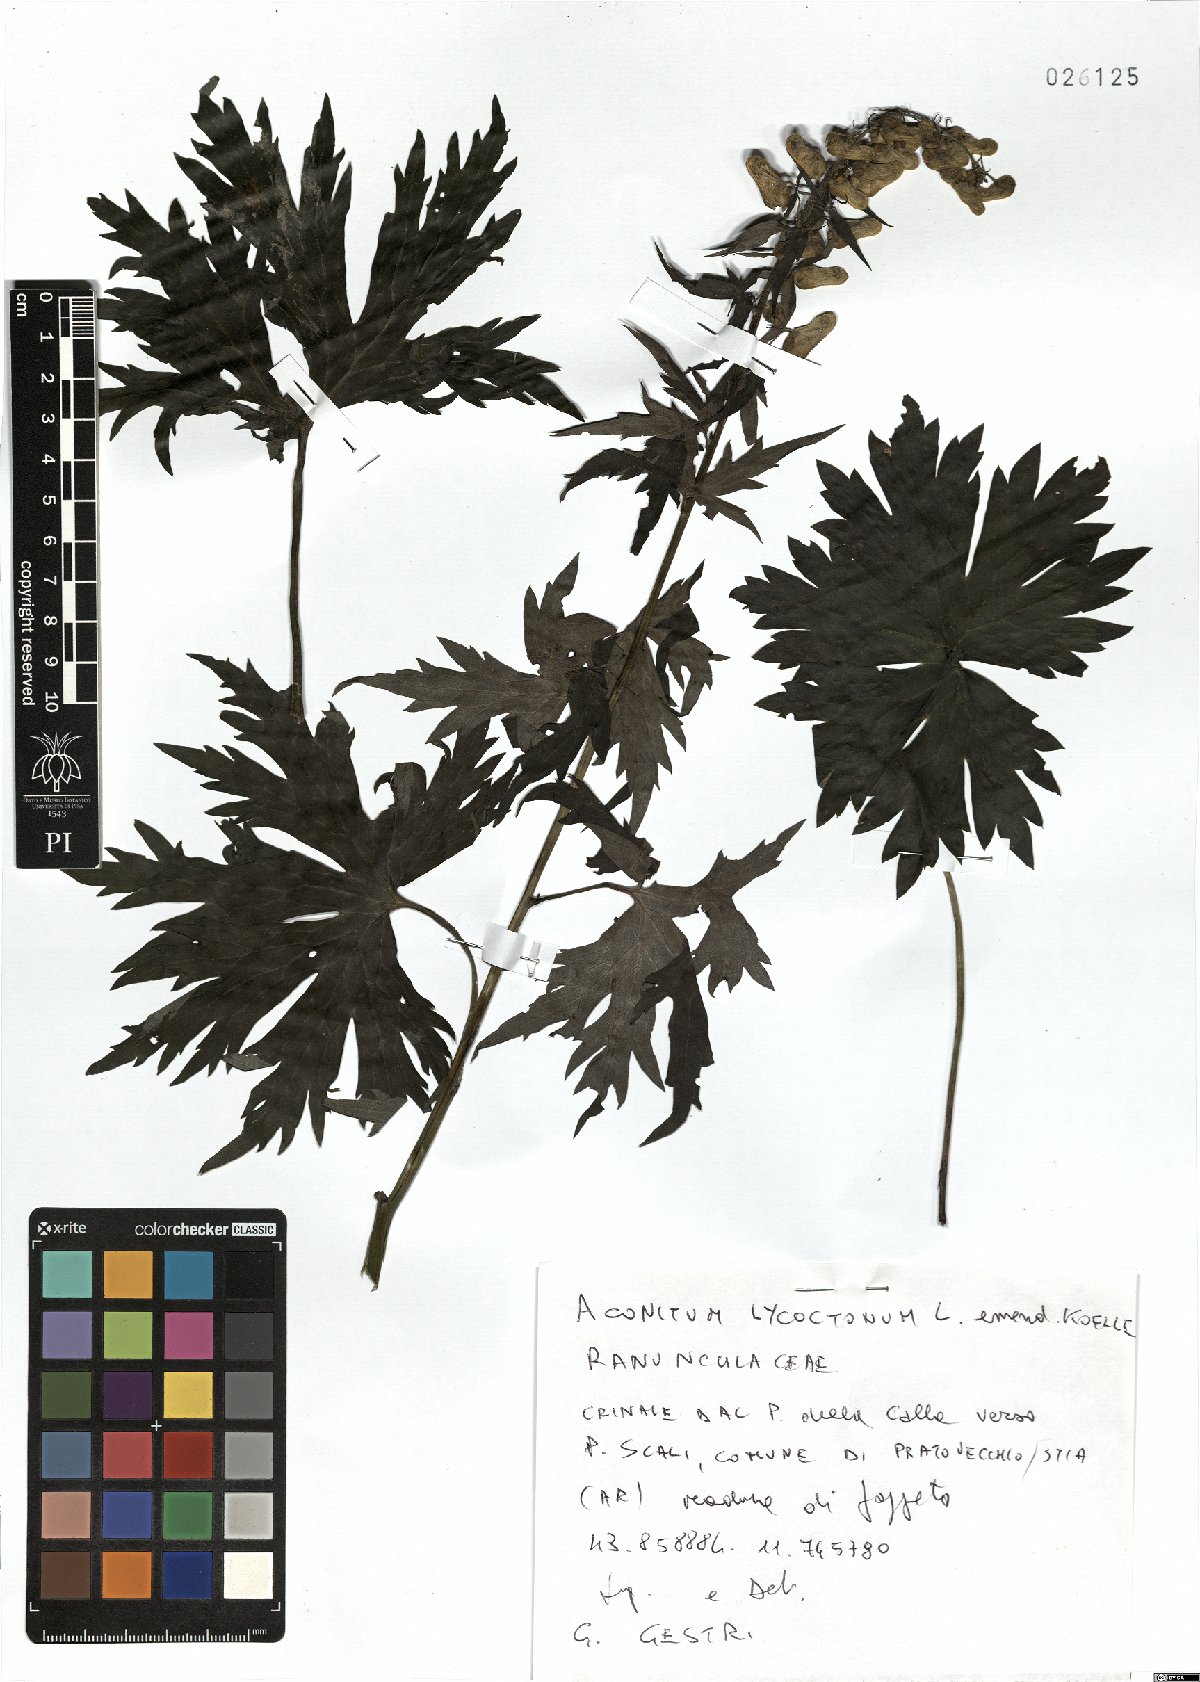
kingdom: Plantae
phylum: Tracheophyta
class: Magnoliopsida
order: Ranunculales
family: Ranunculaceae
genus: Aconitum
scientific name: Aconitum lycoctonum
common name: Wolf's-bane
